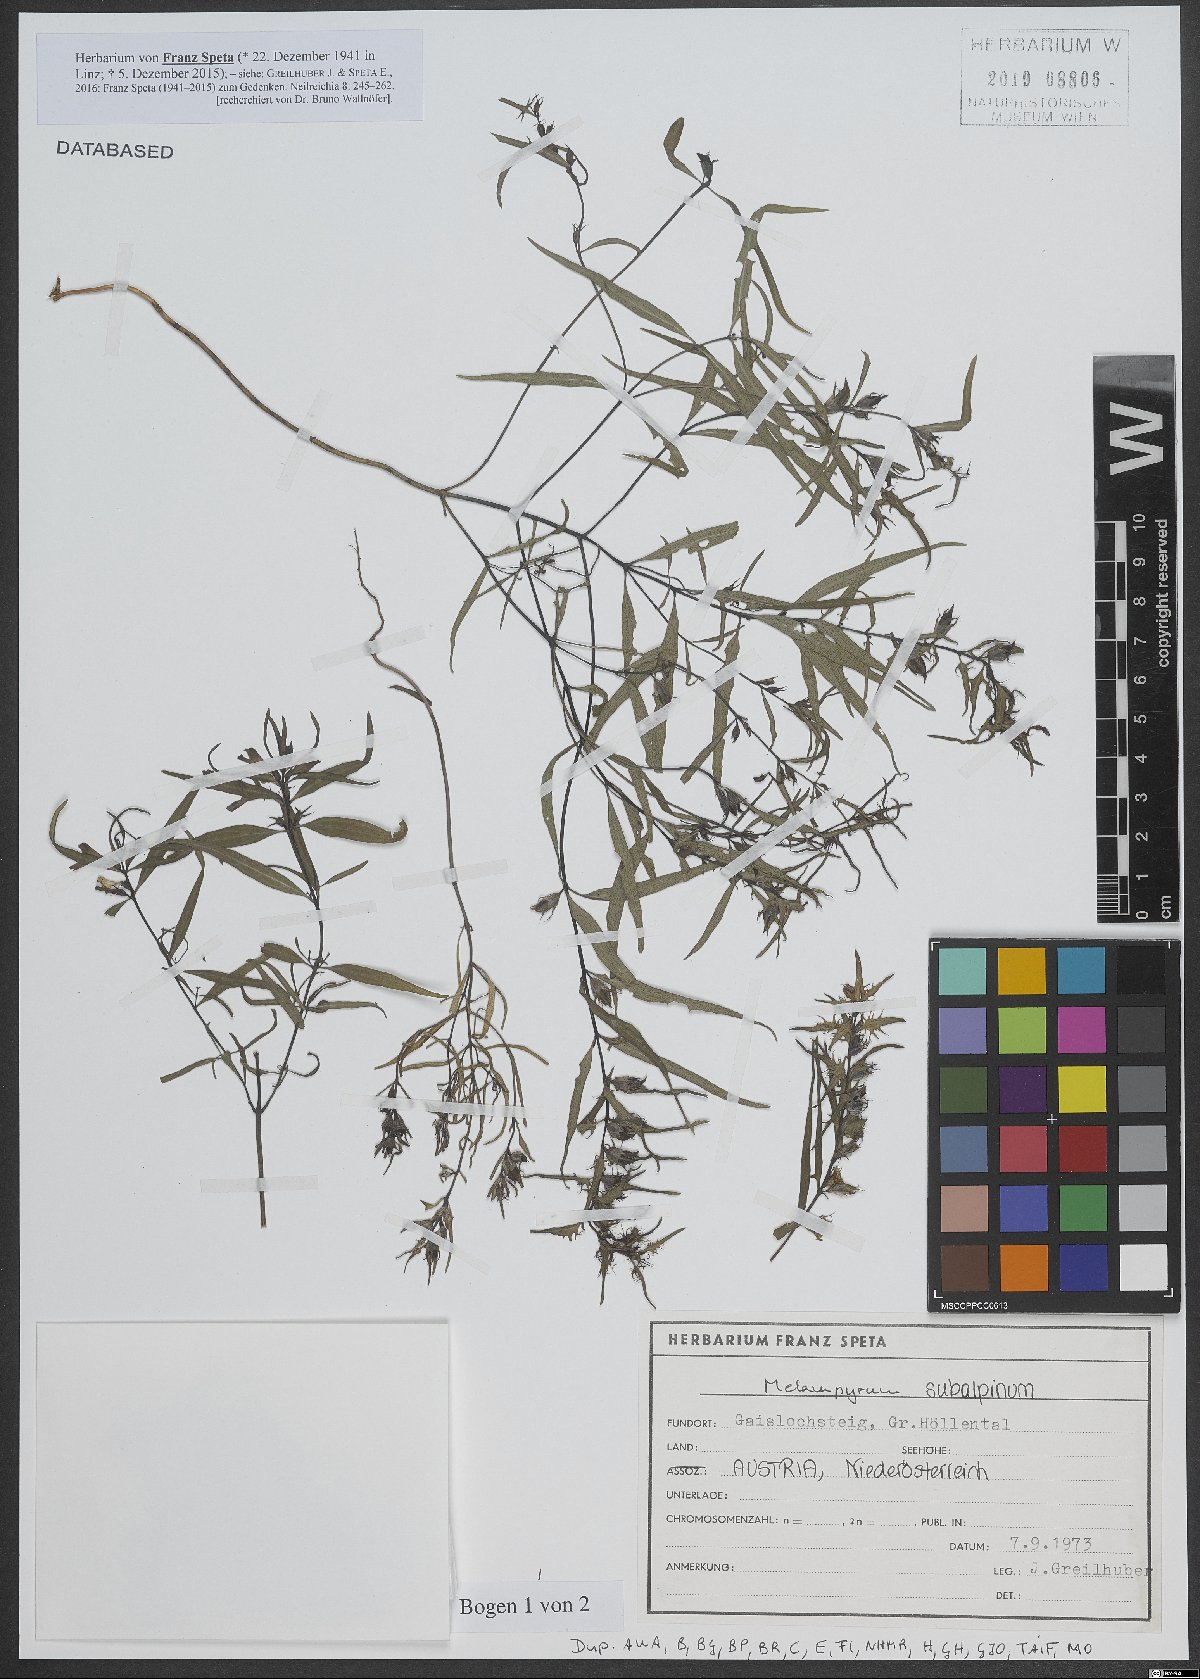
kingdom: Plantae
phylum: Tracheophyta
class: Magnoliopsida
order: Lamiales
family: Orobanchaceae
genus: Melampyrum
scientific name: Melampyrum subalpinum
